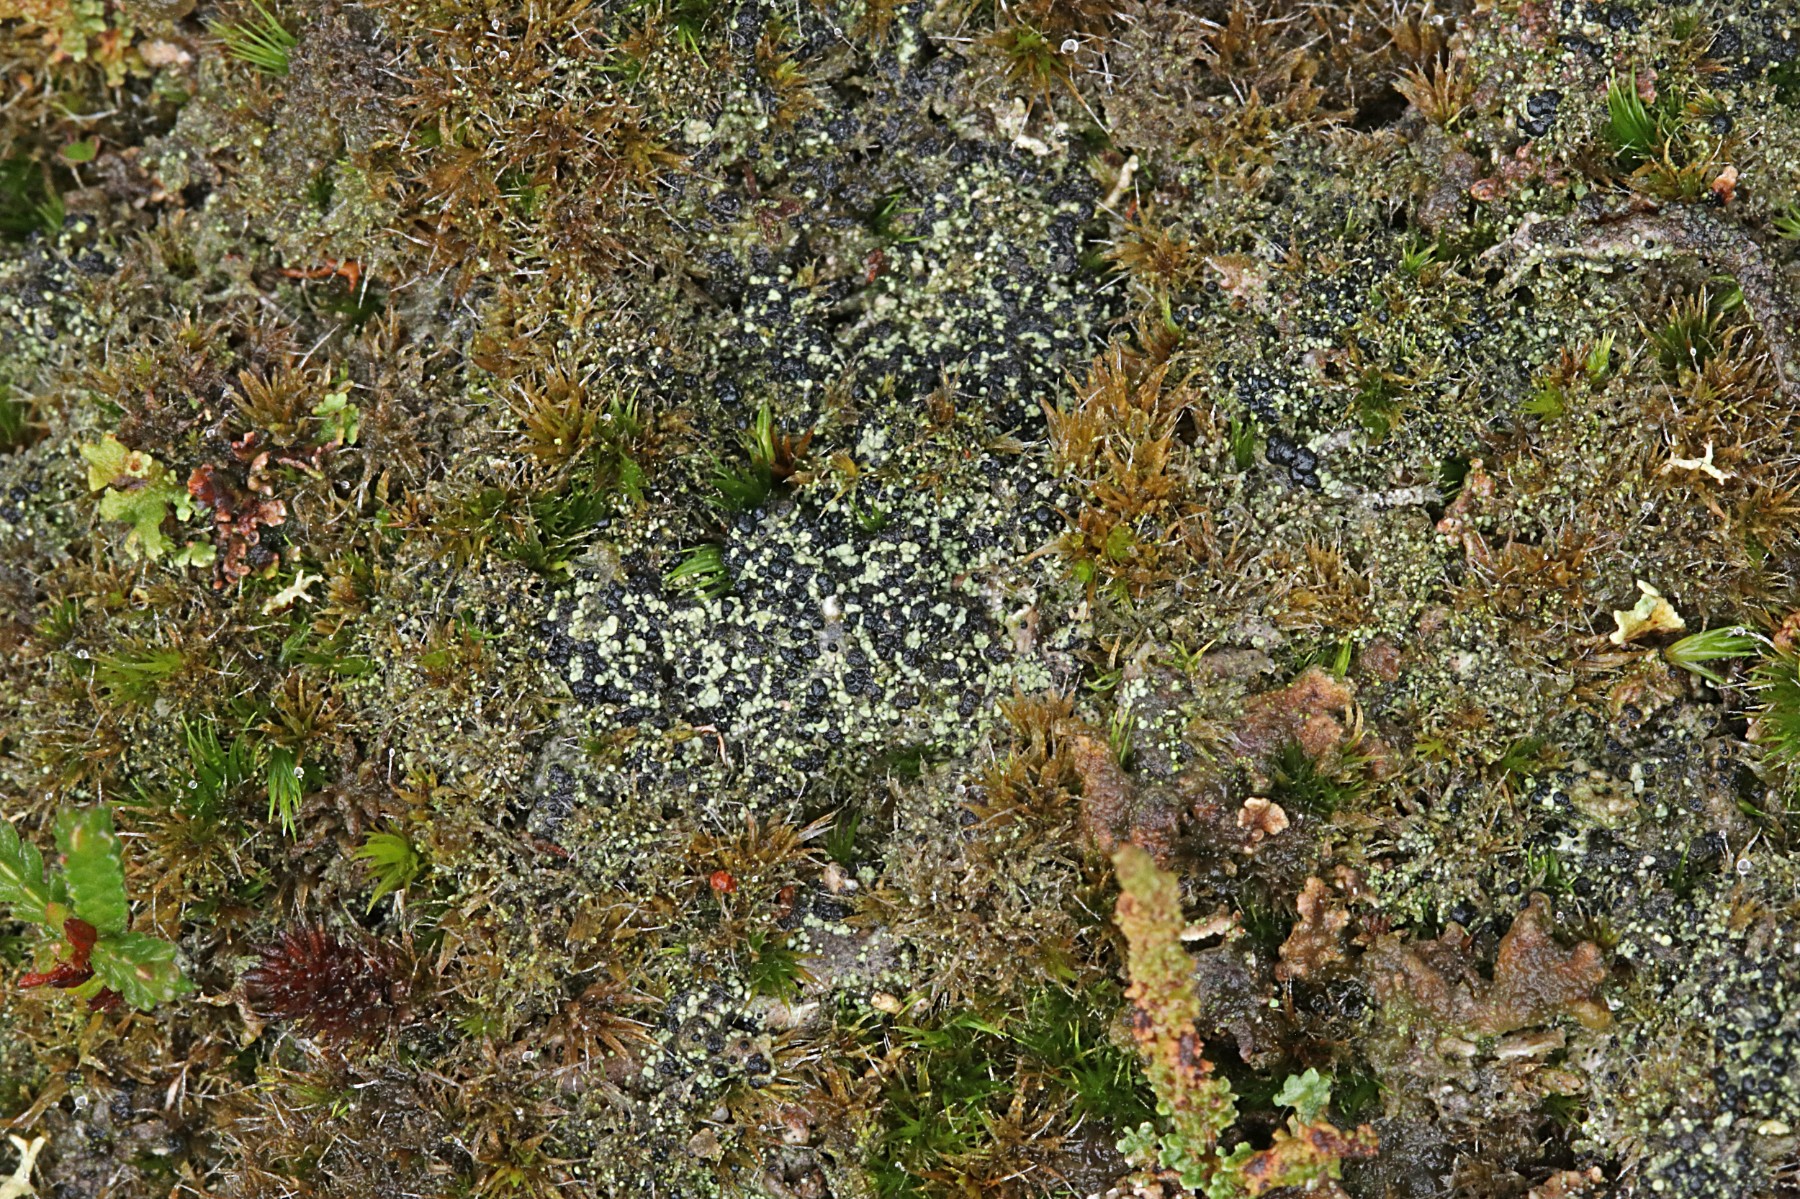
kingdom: Fungi
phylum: Ascomycota
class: Lecanoromycetes
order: Lecanorales
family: Byssolomataceae
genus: Micarea
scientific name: Micarea lignaria
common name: tørve-knaplav
